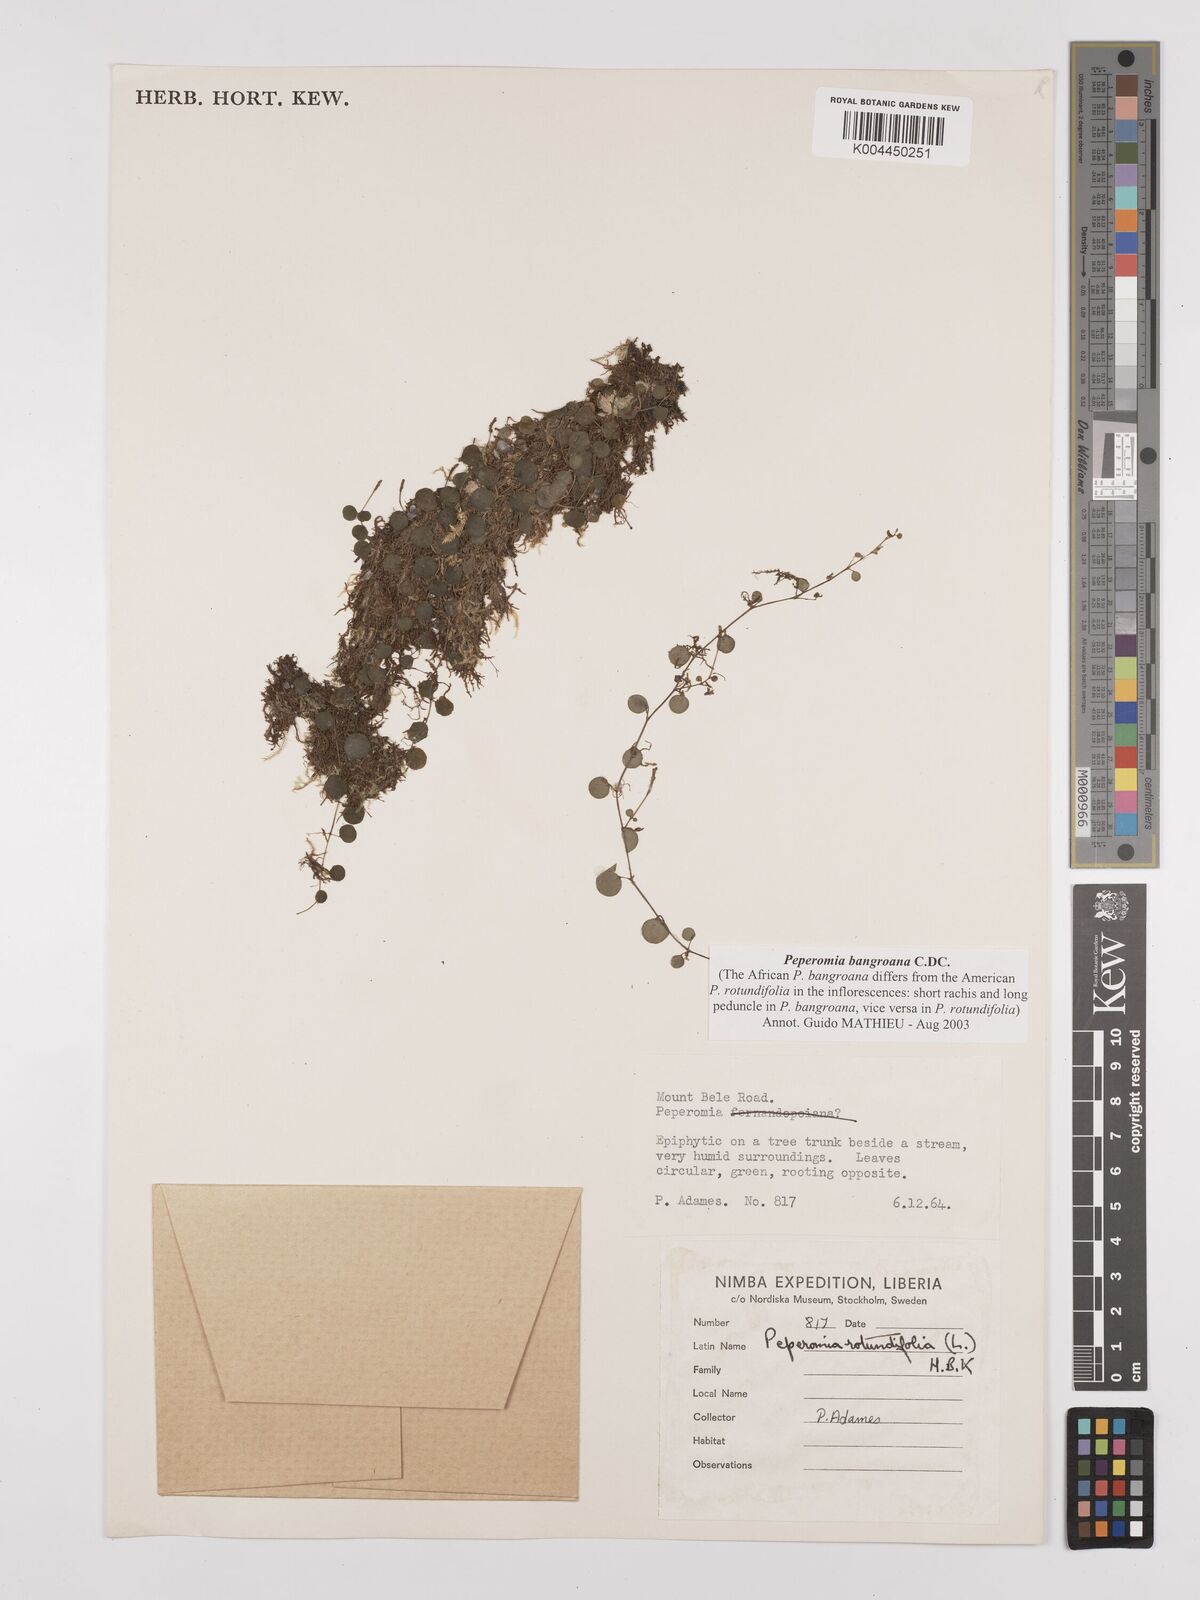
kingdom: Plantae
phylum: Tracheophyta
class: Magnoliopsida
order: Piperales
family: Piperaceae
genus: Peperomia
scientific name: Peperomia bangroana
